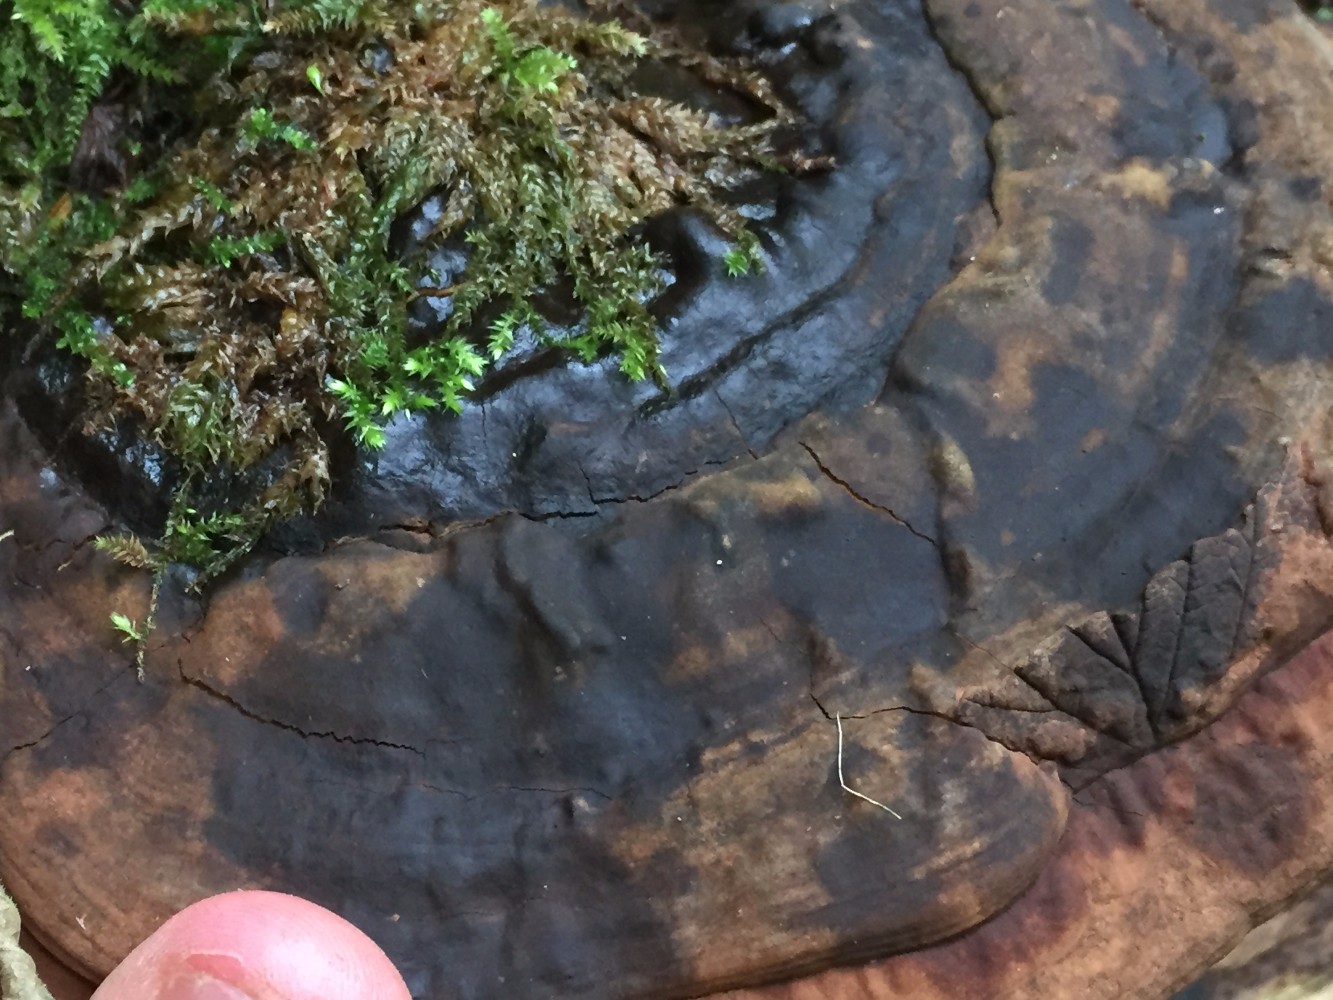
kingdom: Fungi
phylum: Basidiomycota
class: Agaricomycetes
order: Polyporales
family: Polyporaceae
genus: Ganoderma
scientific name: Ganoderma applanatum
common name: flad lakporesvamp
